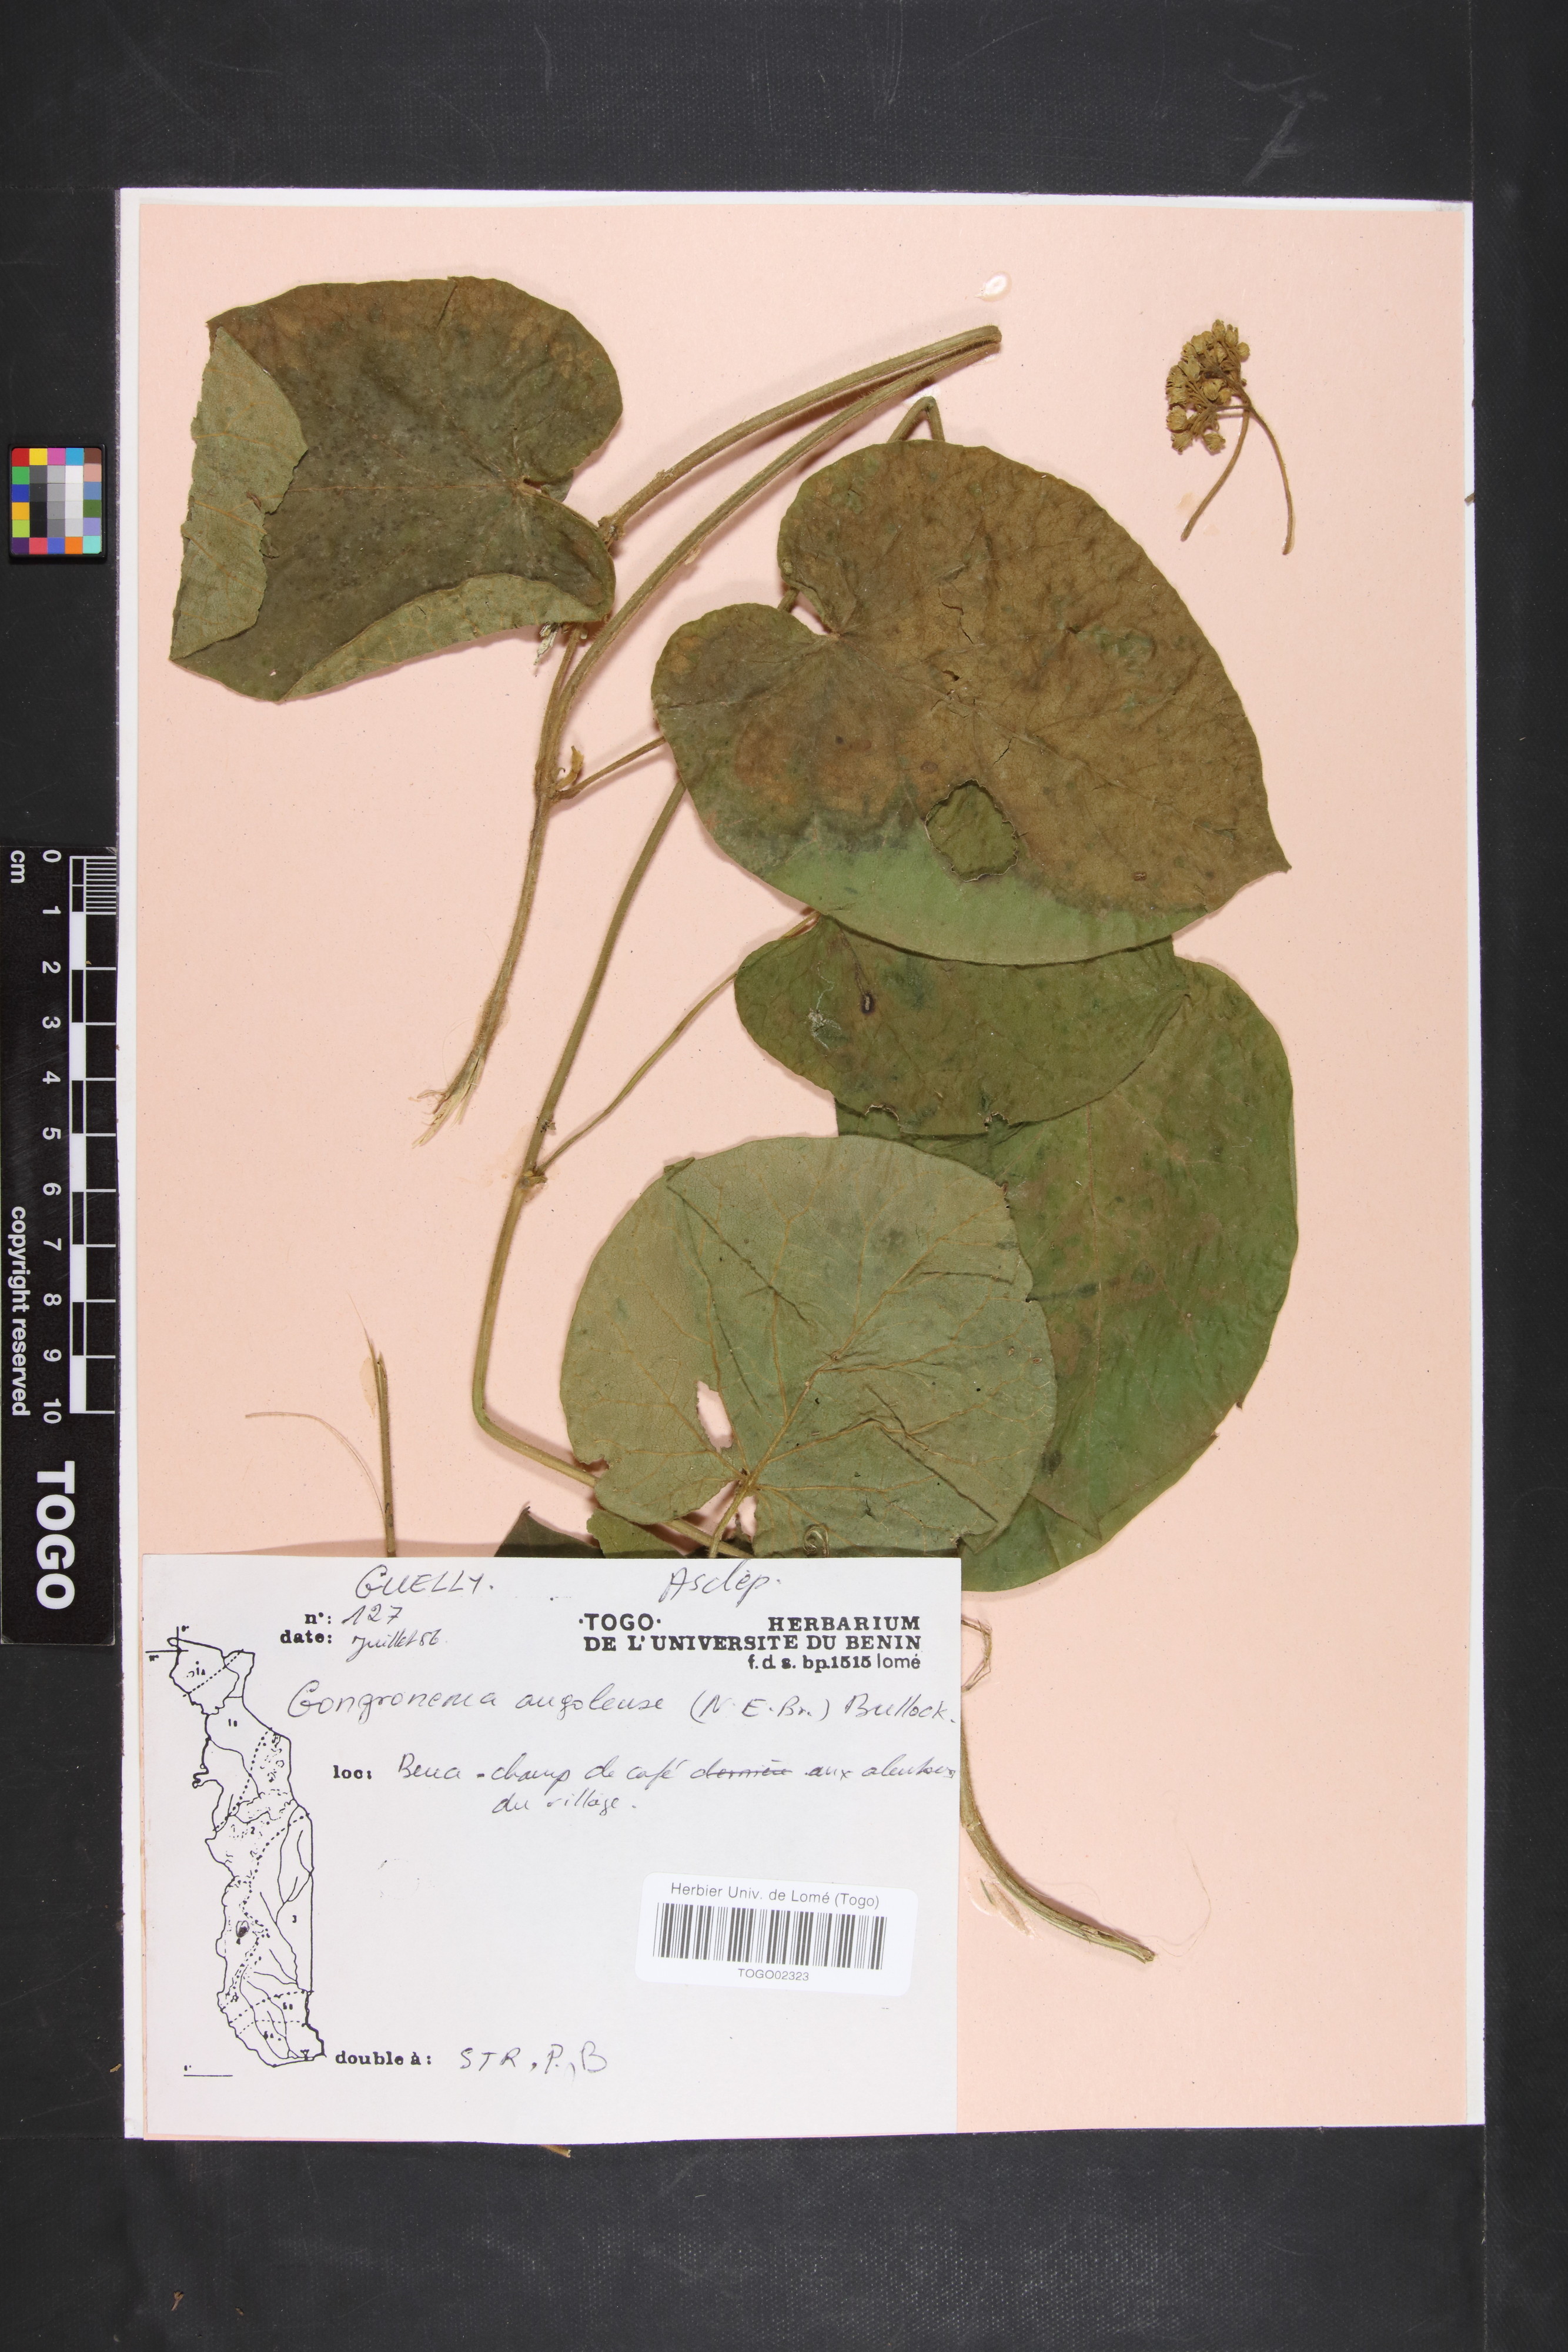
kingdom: Plantae
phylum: Tracheophyta
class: Magnoliopsida
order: Gentianales
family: Apocynaceae
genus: Gongronemopsis
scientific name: Gongronemopsis angolensis
